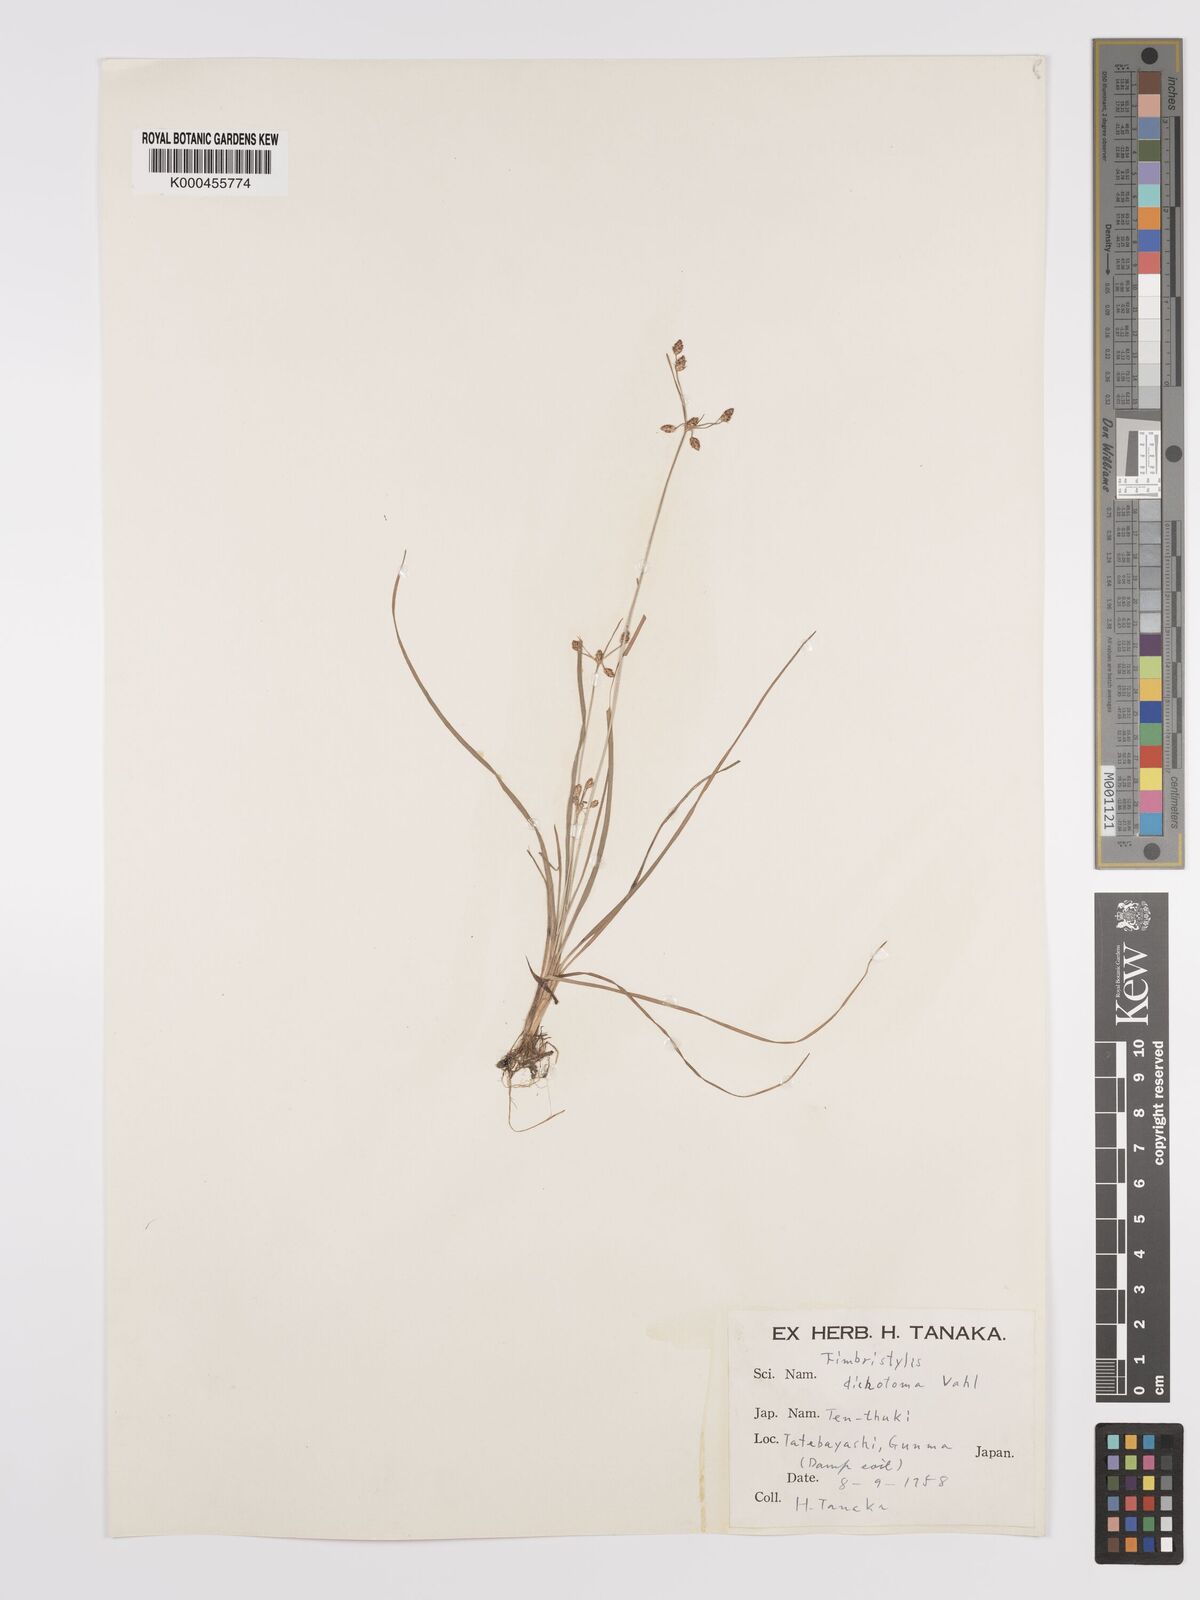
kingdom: Plantae
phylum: Tracheophyta
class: Liliopsida
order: Poales
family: Cyperaceae
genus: Fimbristylis
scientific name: Fimbristylis dichotoma
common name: Forked fimbry
